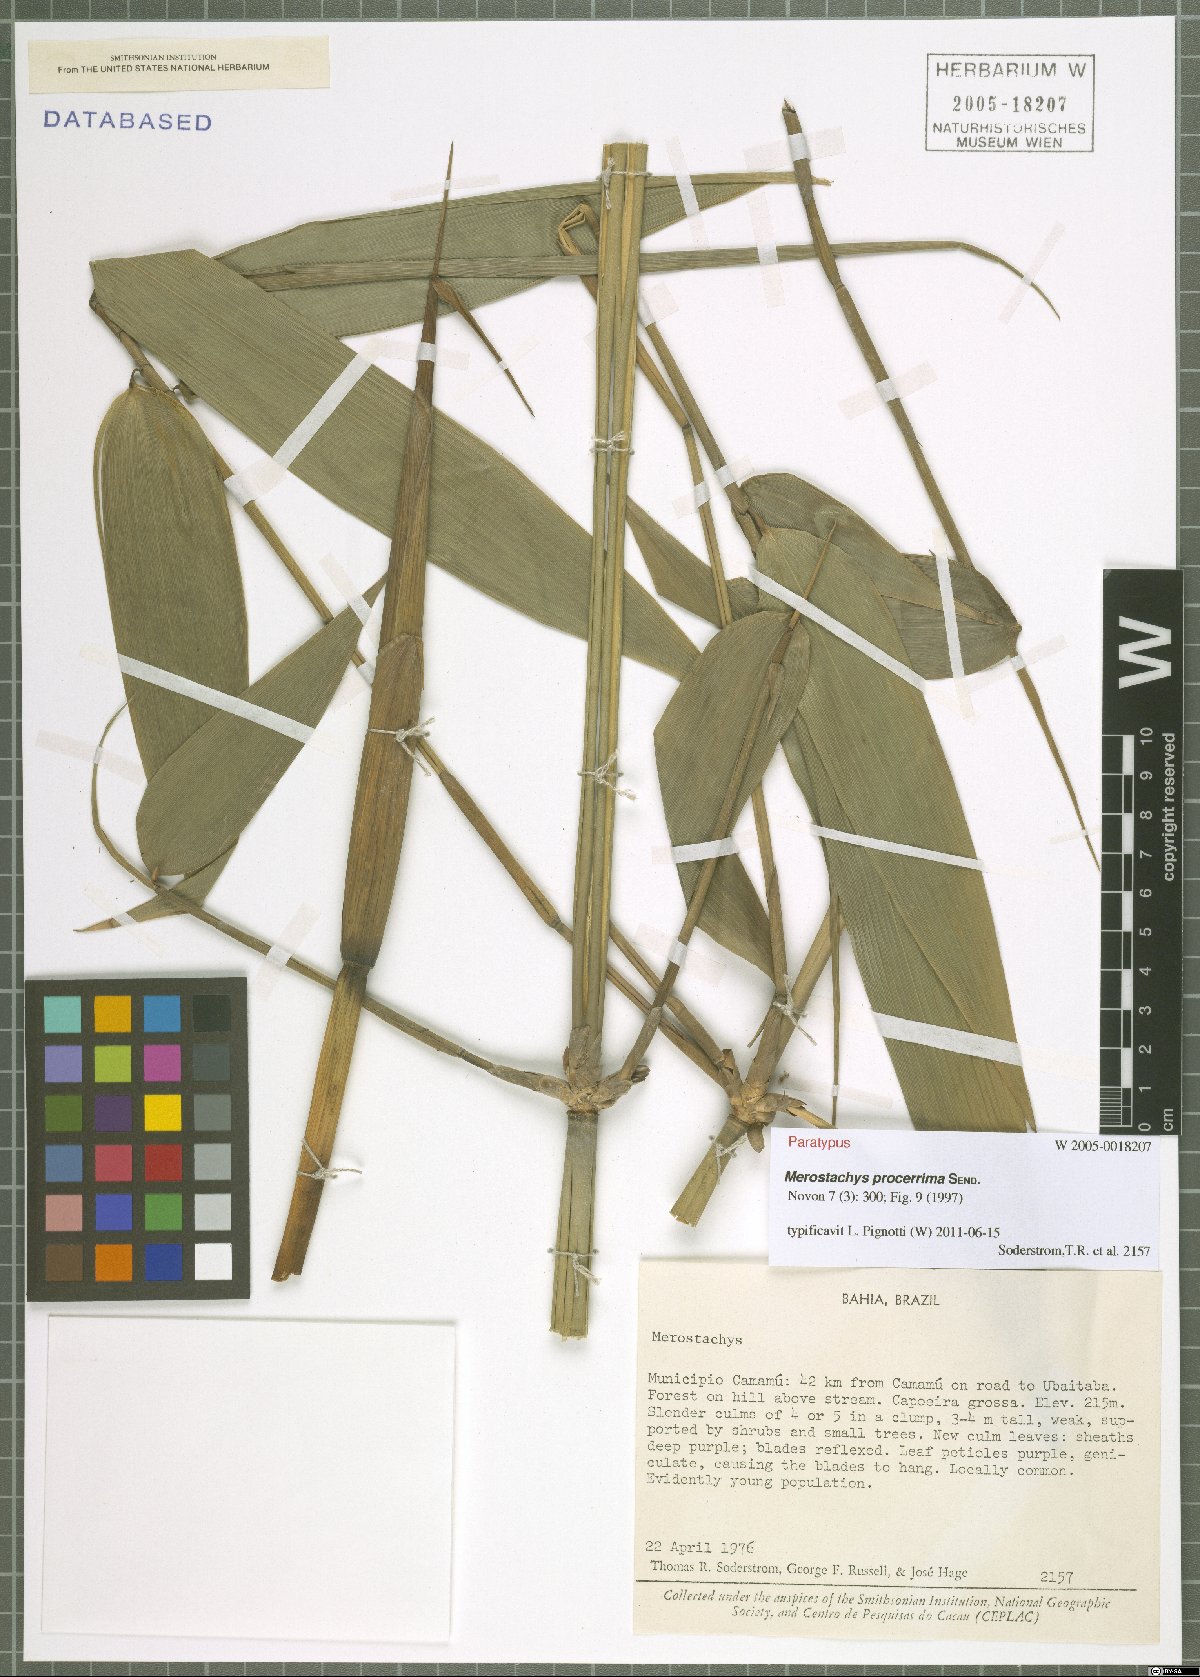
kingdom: Plantae
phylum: Tracheophyta
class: Liliopsida
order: Poales
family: Poaceae
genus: Merostachys
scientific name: Merostachys procerrima
